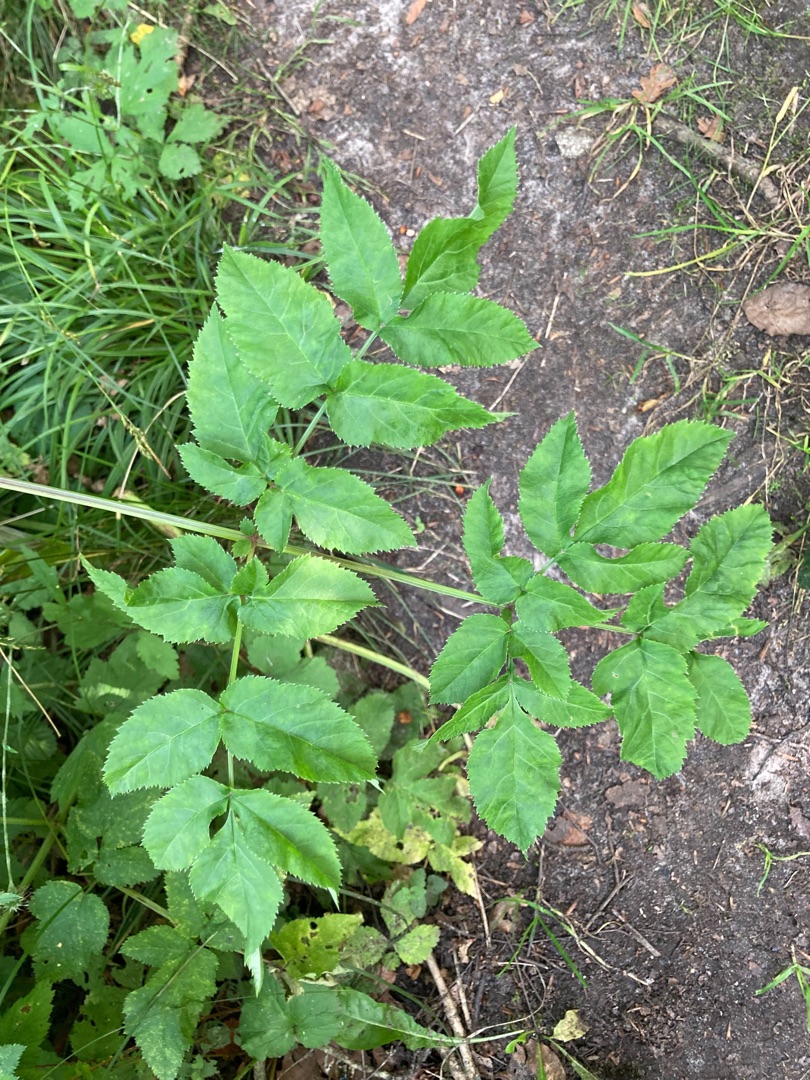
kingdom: Plantae
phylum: Tracheophyta
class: Magnoliopsida
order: Apiales
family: Apiaceae
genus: Angelica
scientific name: Angelica sylvestris
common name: Angelik
